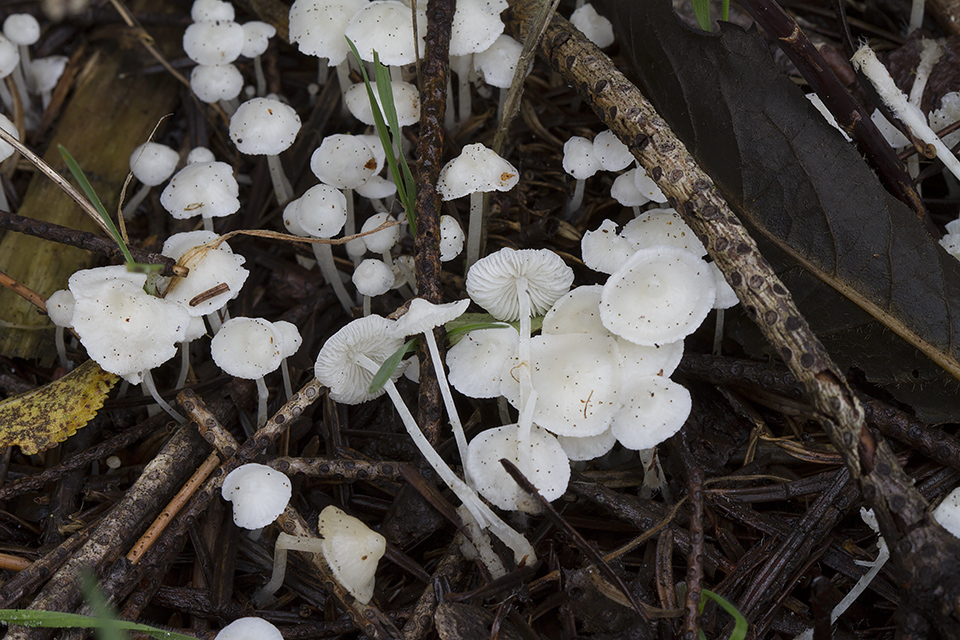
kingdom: Fungi
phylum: Basidiomycota
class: Agaricomycetes
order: Agaricales
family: Mycenaceae
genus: Hemimycena
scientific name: Hemimycena cucullata
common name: tætbladet huesvamp
